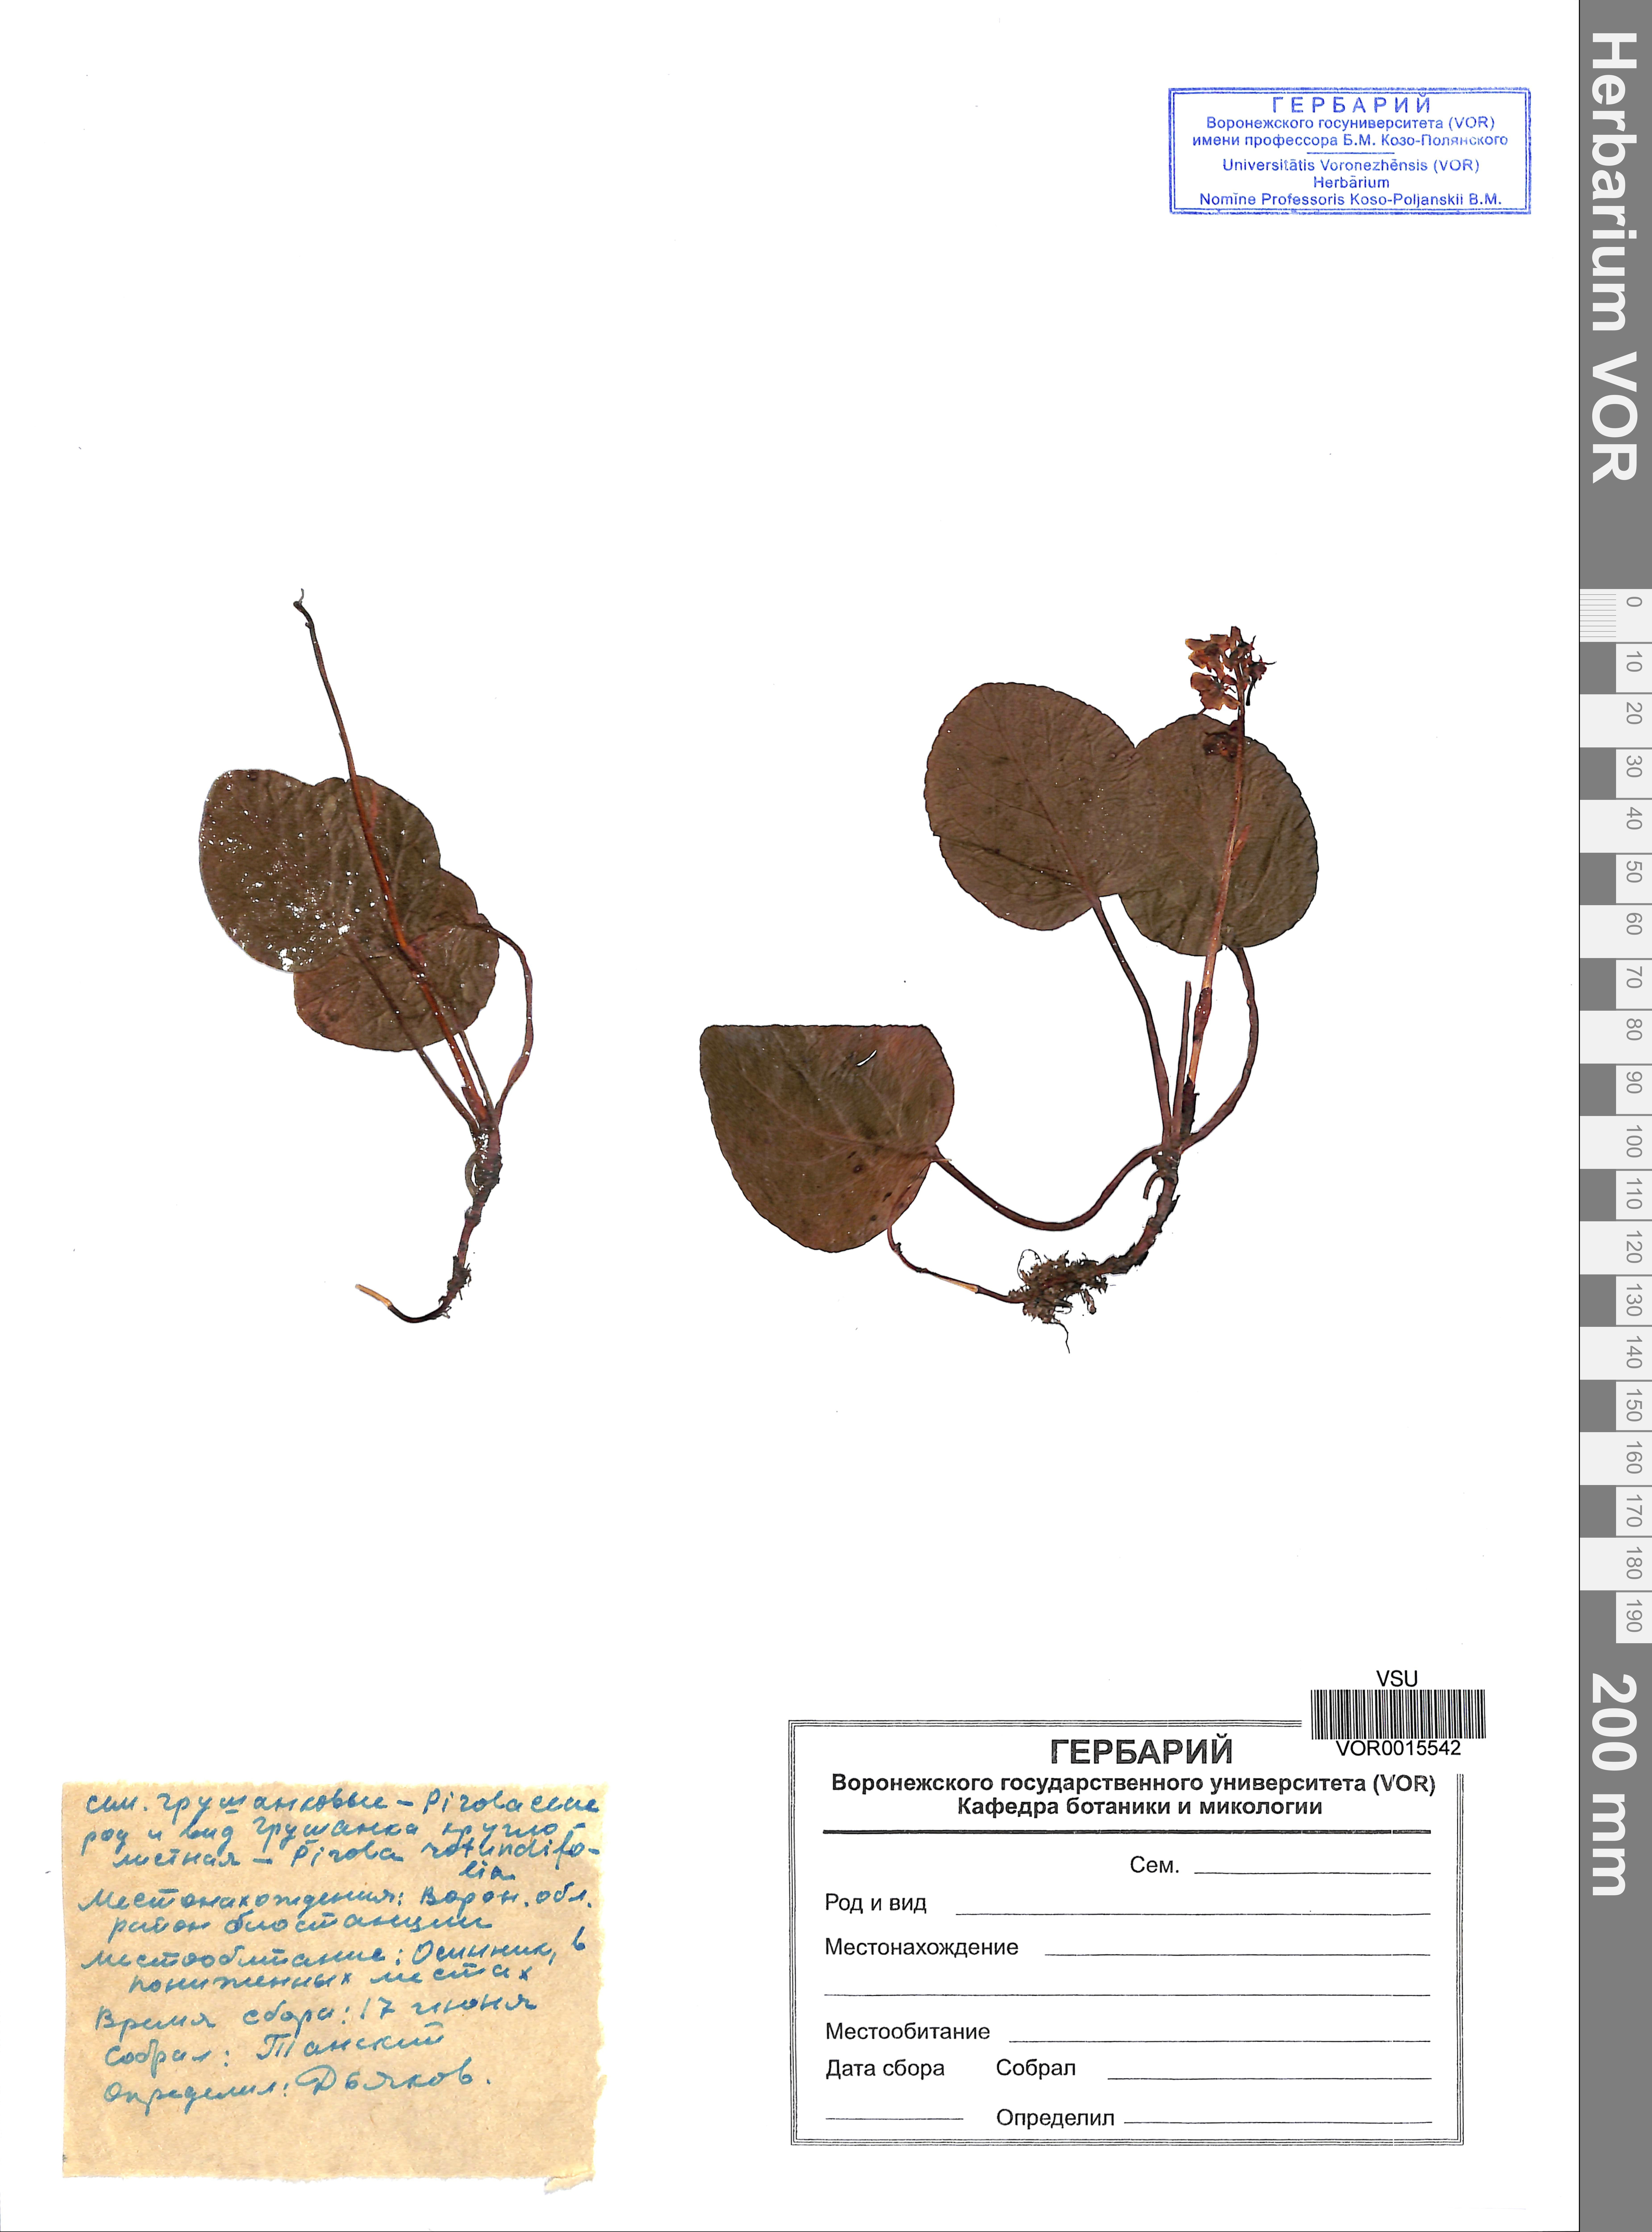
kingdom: Plantae
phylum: Tracheophyta
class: Magnoliopsida
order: Ericales
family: Ericaceae
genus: Pyrola
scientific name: Pyrola rotundifolia
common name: Round-leaved wintergreen
